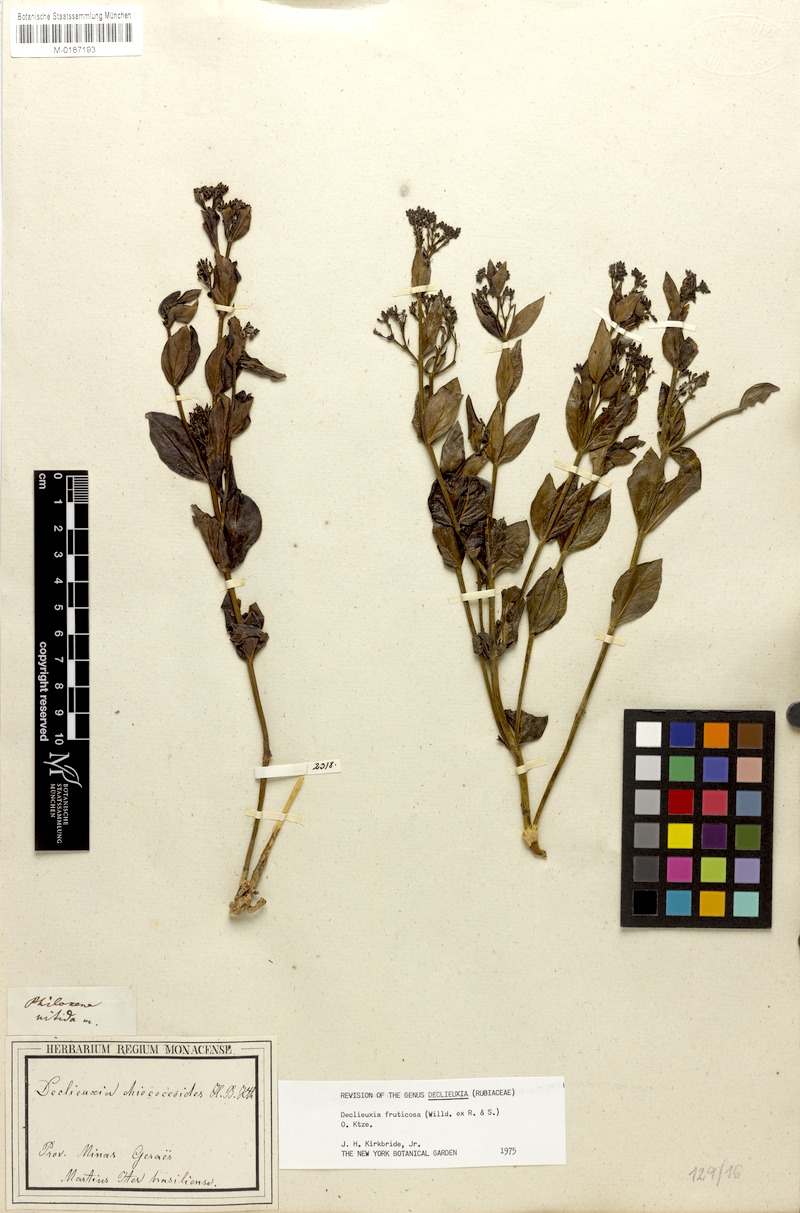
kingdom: Plantae
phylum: Tracheophyta
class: Magnoliopsida
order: Gentianales
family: Rubiaceae
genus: Declieuxia
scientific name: Declieuxia fruticosa
